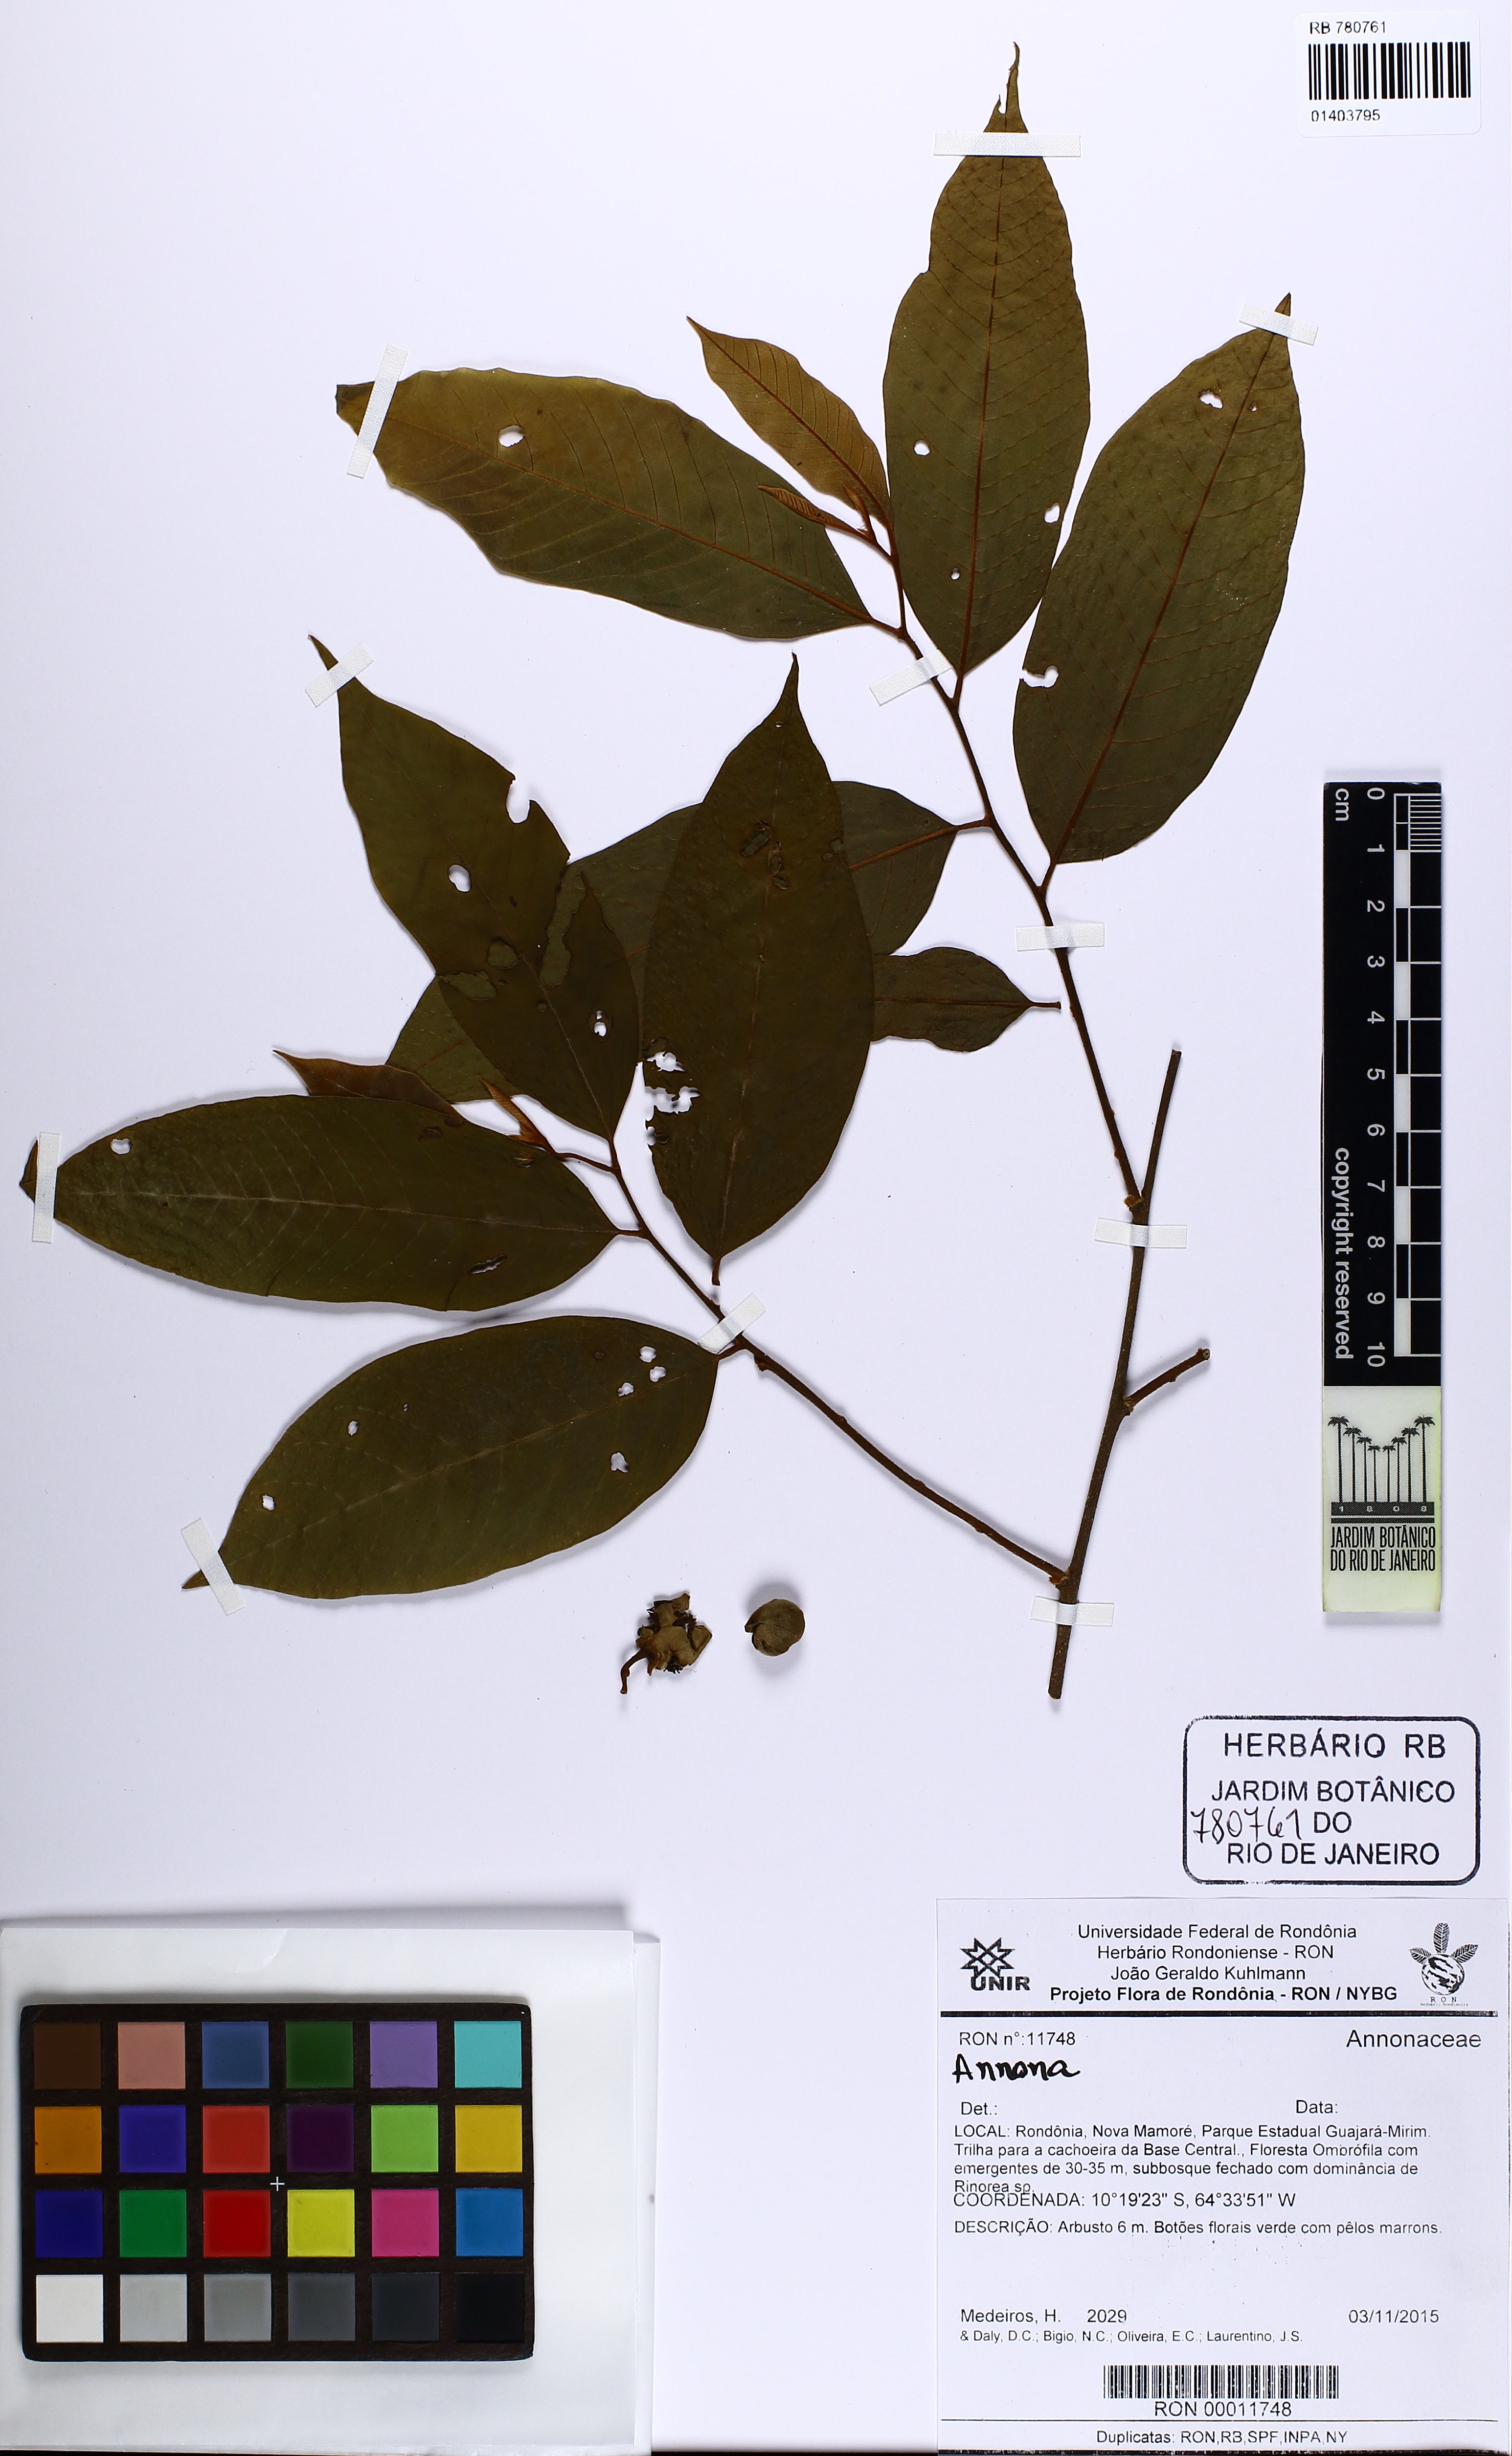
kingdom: Plantae
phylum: Tracheophyta
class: Magnoliopsida
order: Magnoliales
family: Annonaceae
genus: Annona
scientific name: Annona
